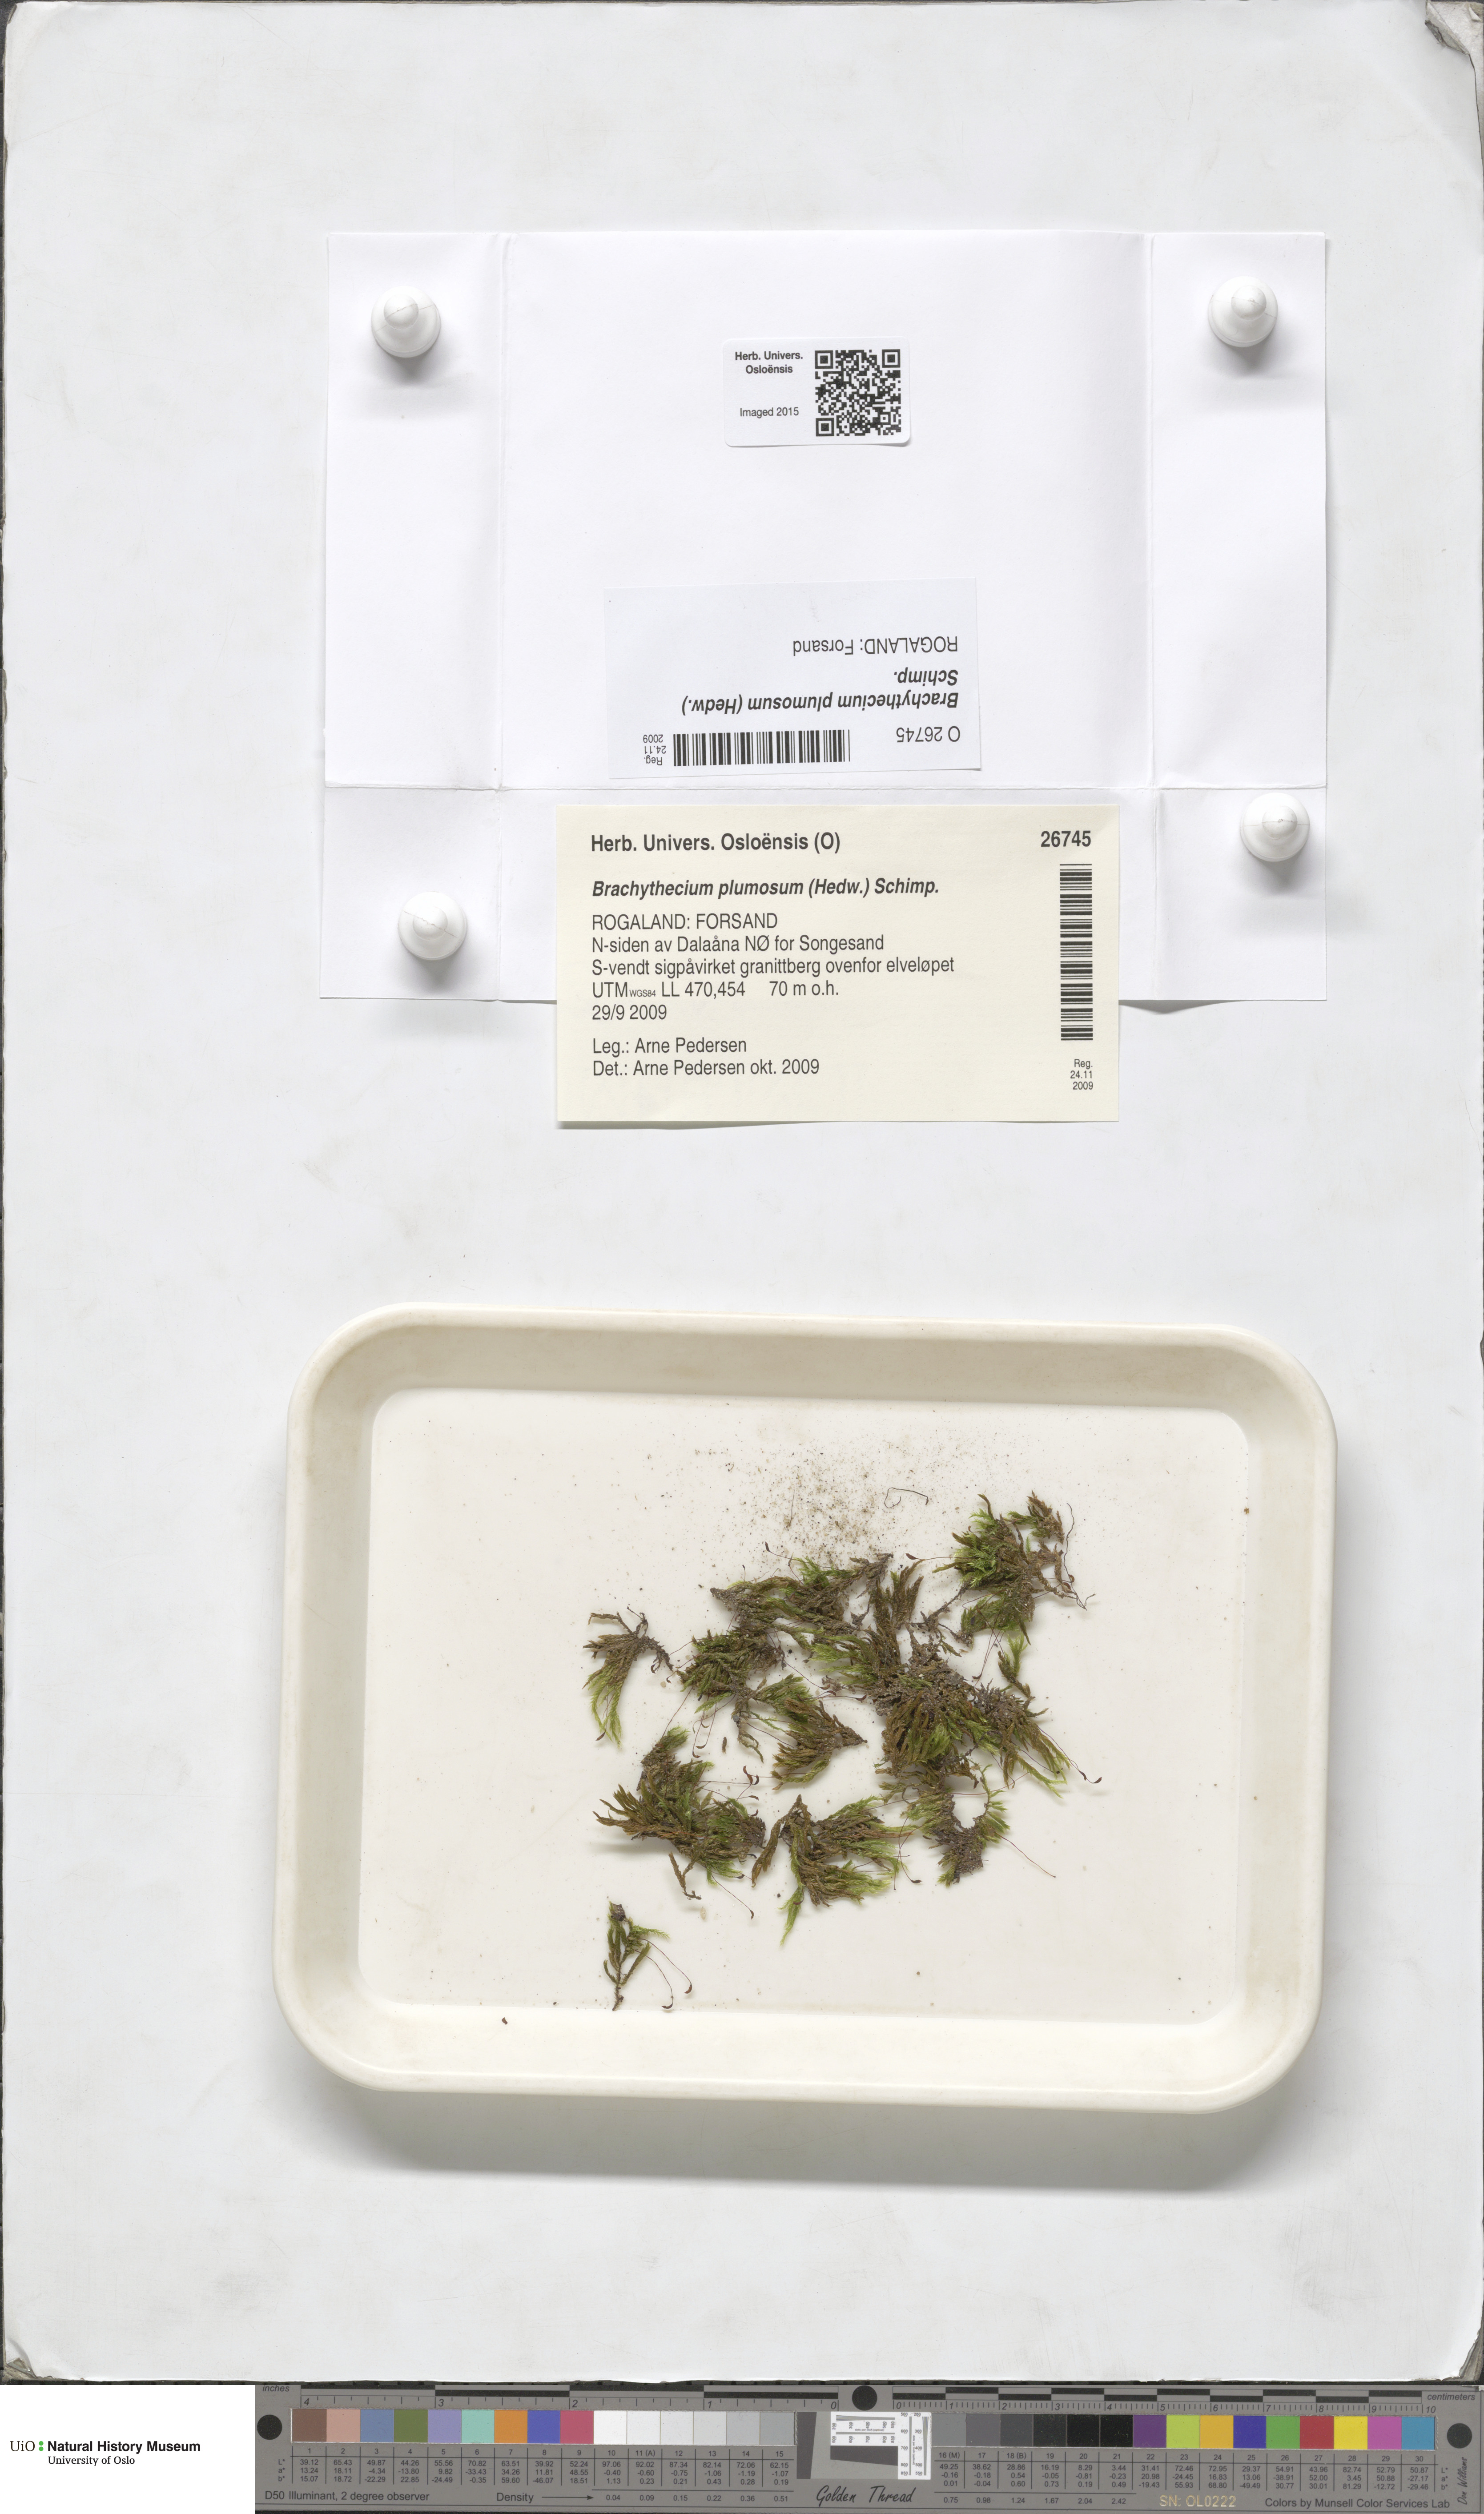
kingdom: Plantae
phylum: Bryophyta
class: Bryopsida
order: Hypnales
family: Brachytheciaceae
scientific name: Brachytheciaceae
